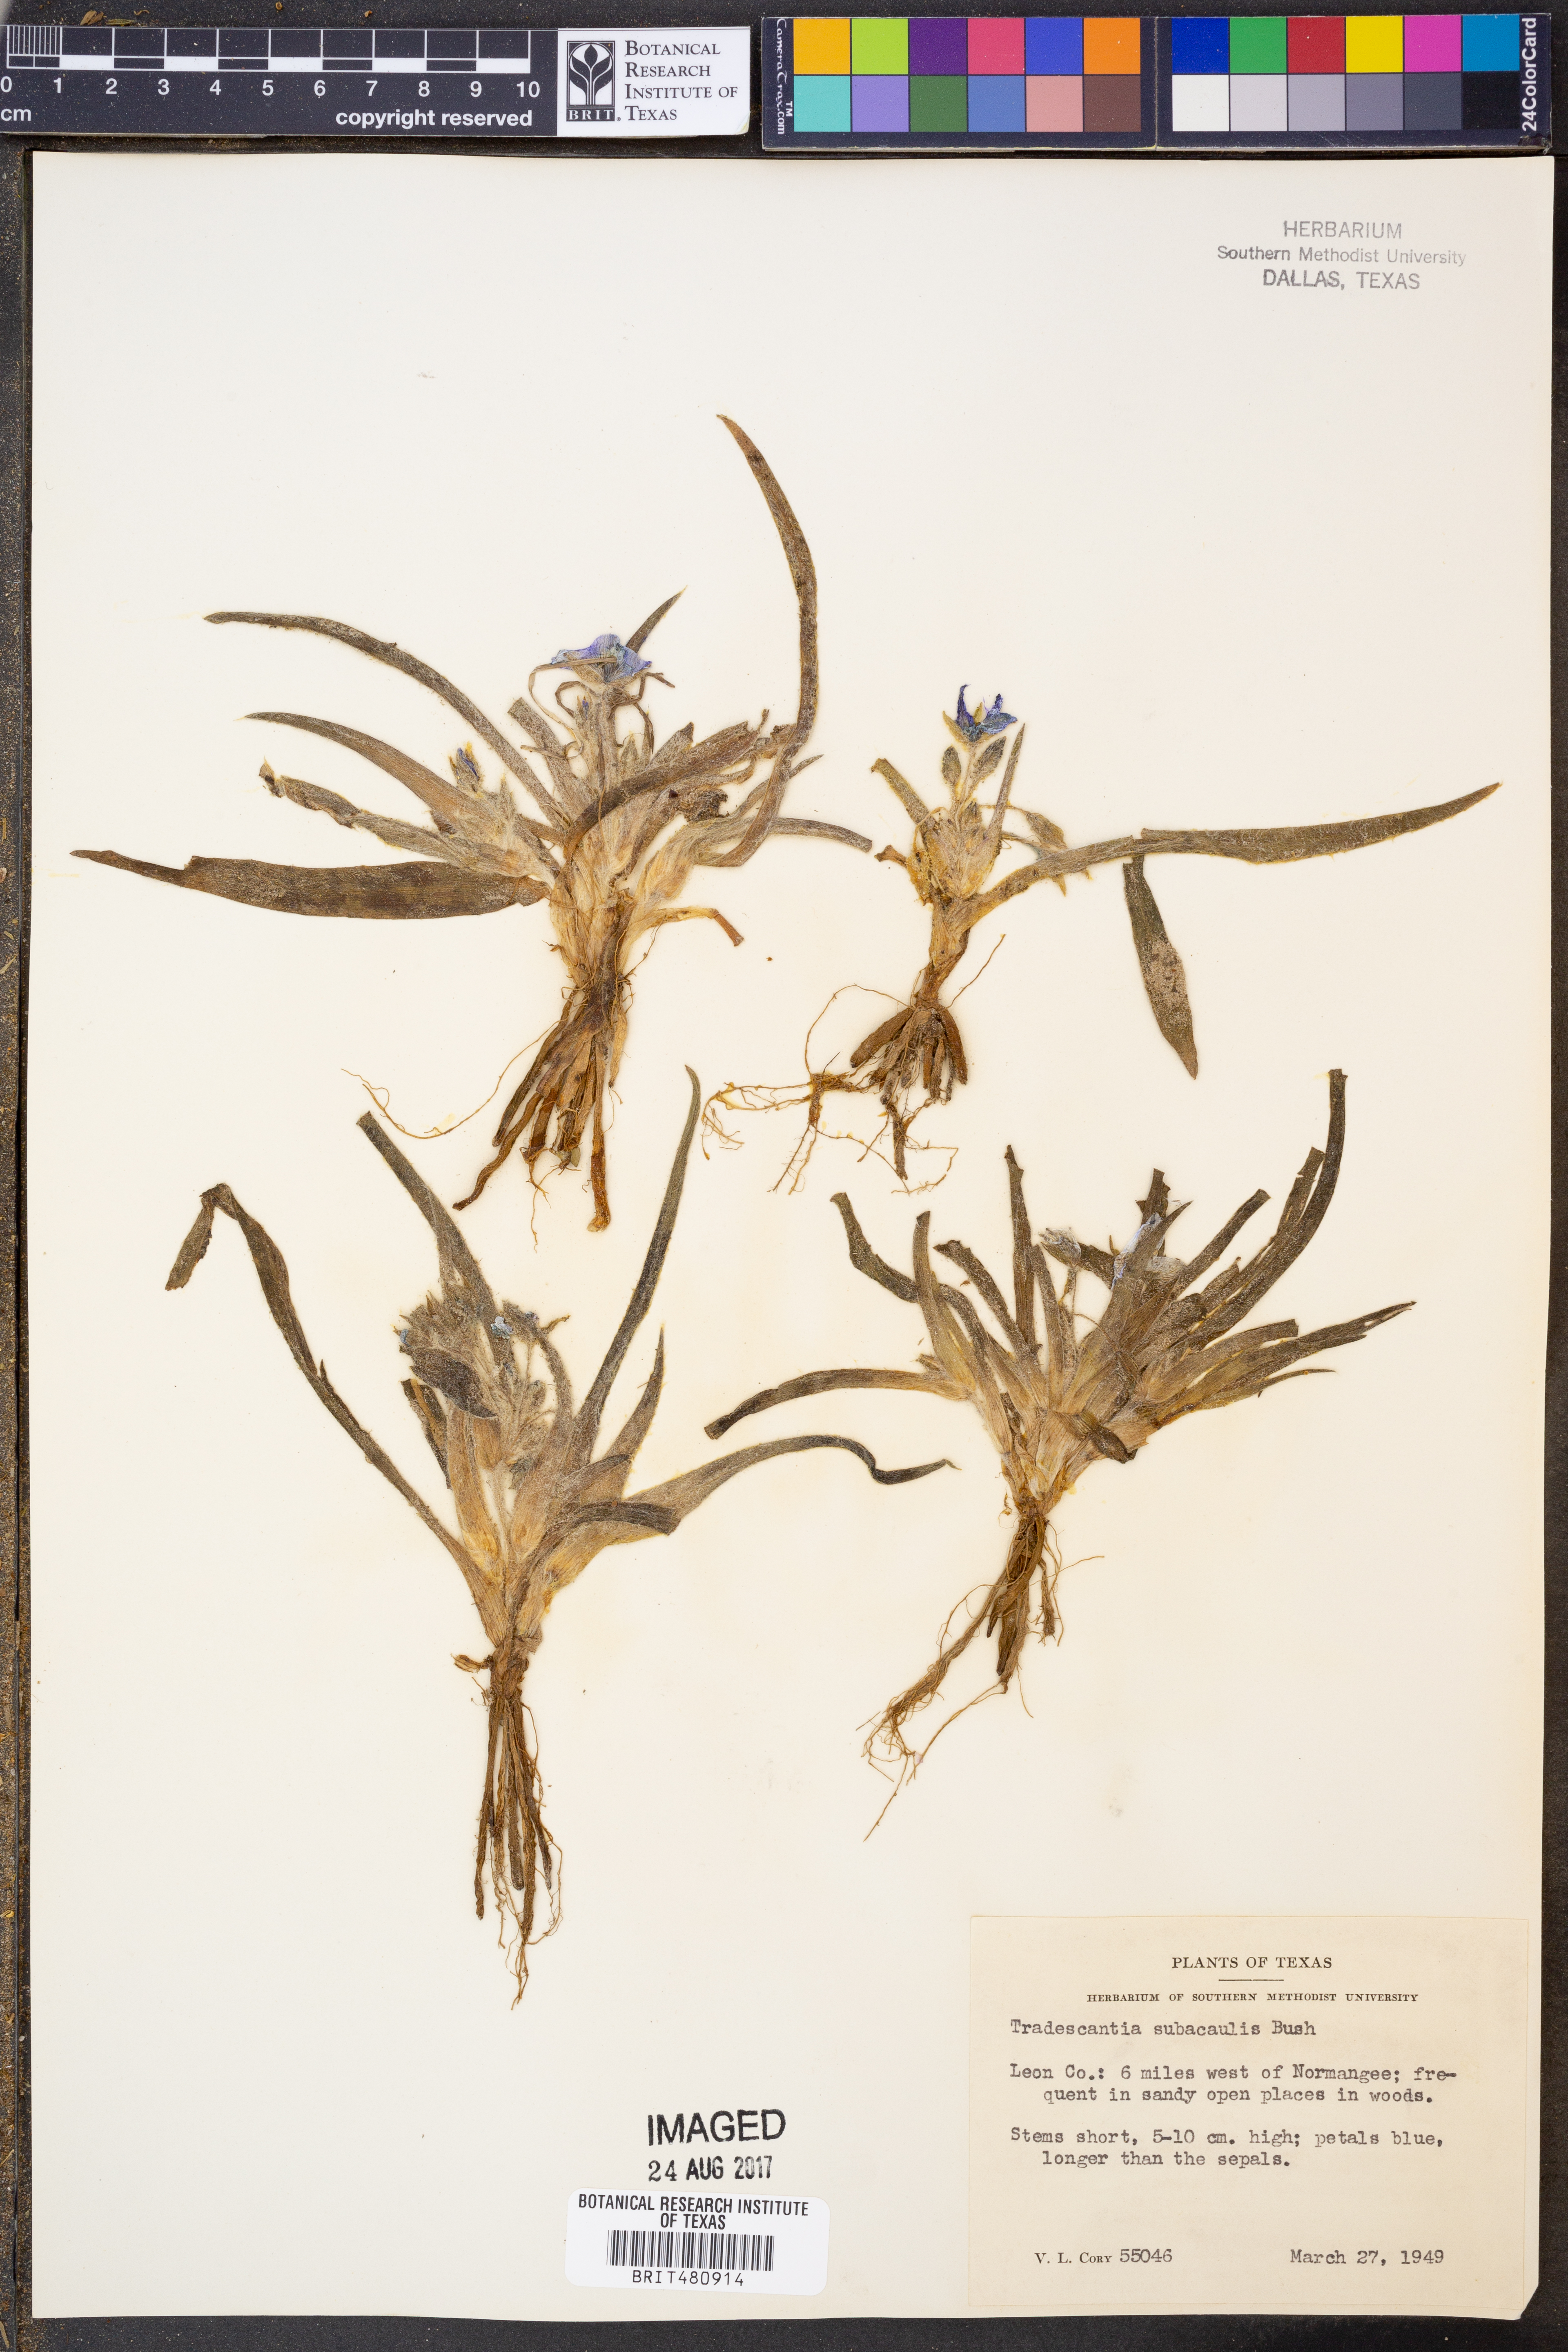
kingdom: Plantae
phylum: Tracheophyta
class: Liliopsida
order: Commelinales
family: Commelinaceae
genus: Tradescantia
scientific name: Tradescantia subacaulis
